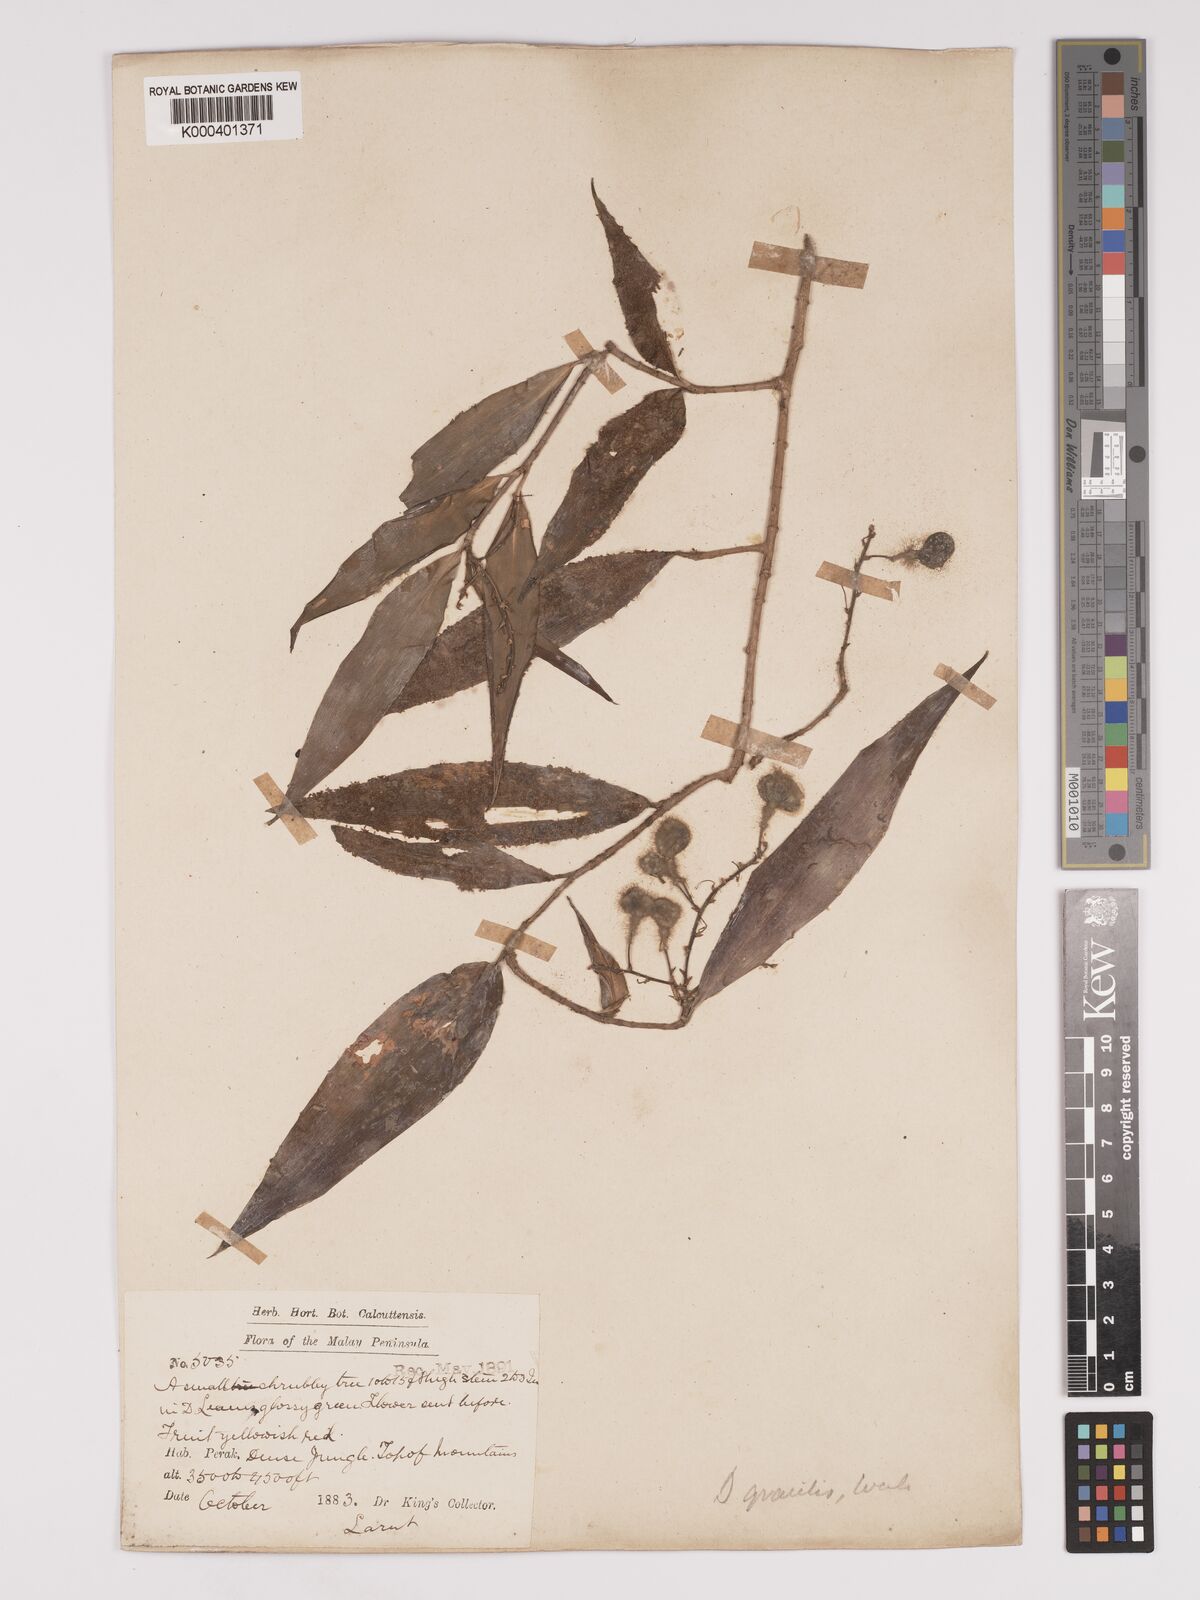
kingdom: Plantae
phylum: Tracheophyta
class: Liliopsida
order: Asparagales
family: Asparagaceae
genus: Dracaena
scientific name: Dracaena elliptica
